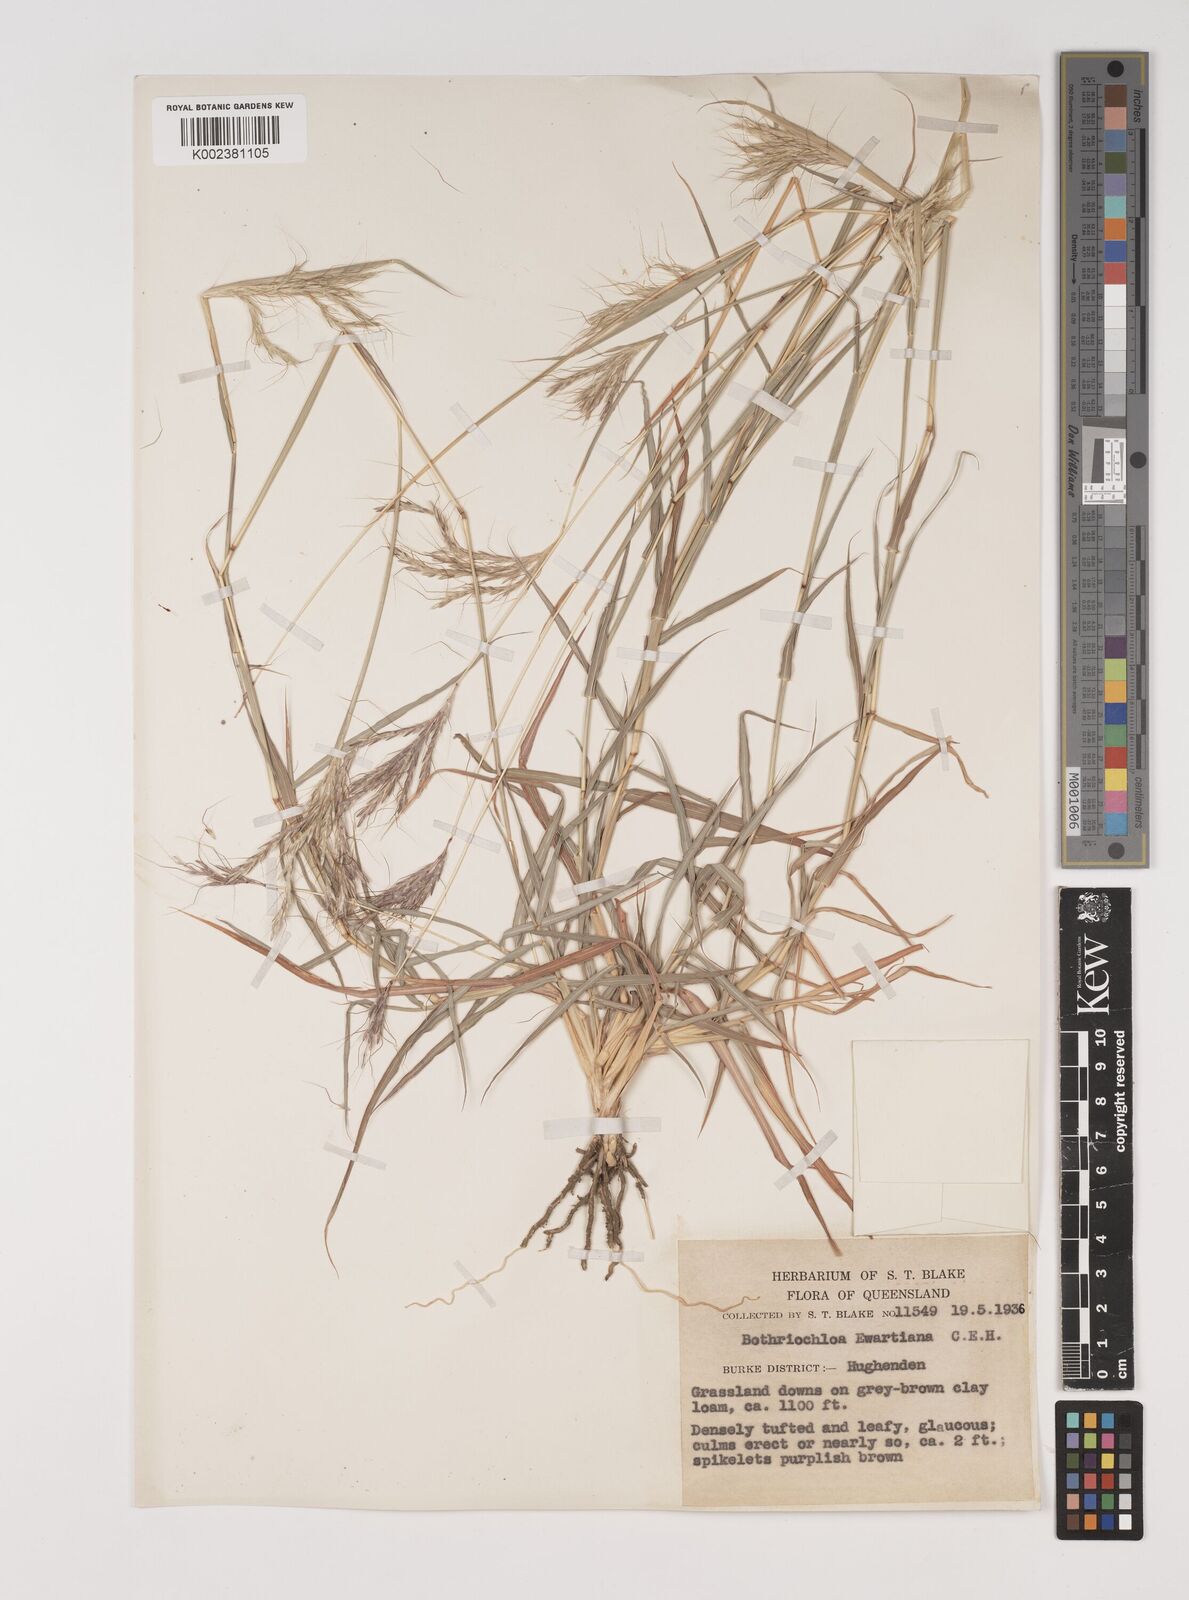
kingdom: Plantae
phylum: Tracheophyta
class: Liliopsida
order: Poales
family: Poaceae
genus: Bothriochloa
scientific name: Bothriochloa ewartiana
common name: Desert-bluegrass
